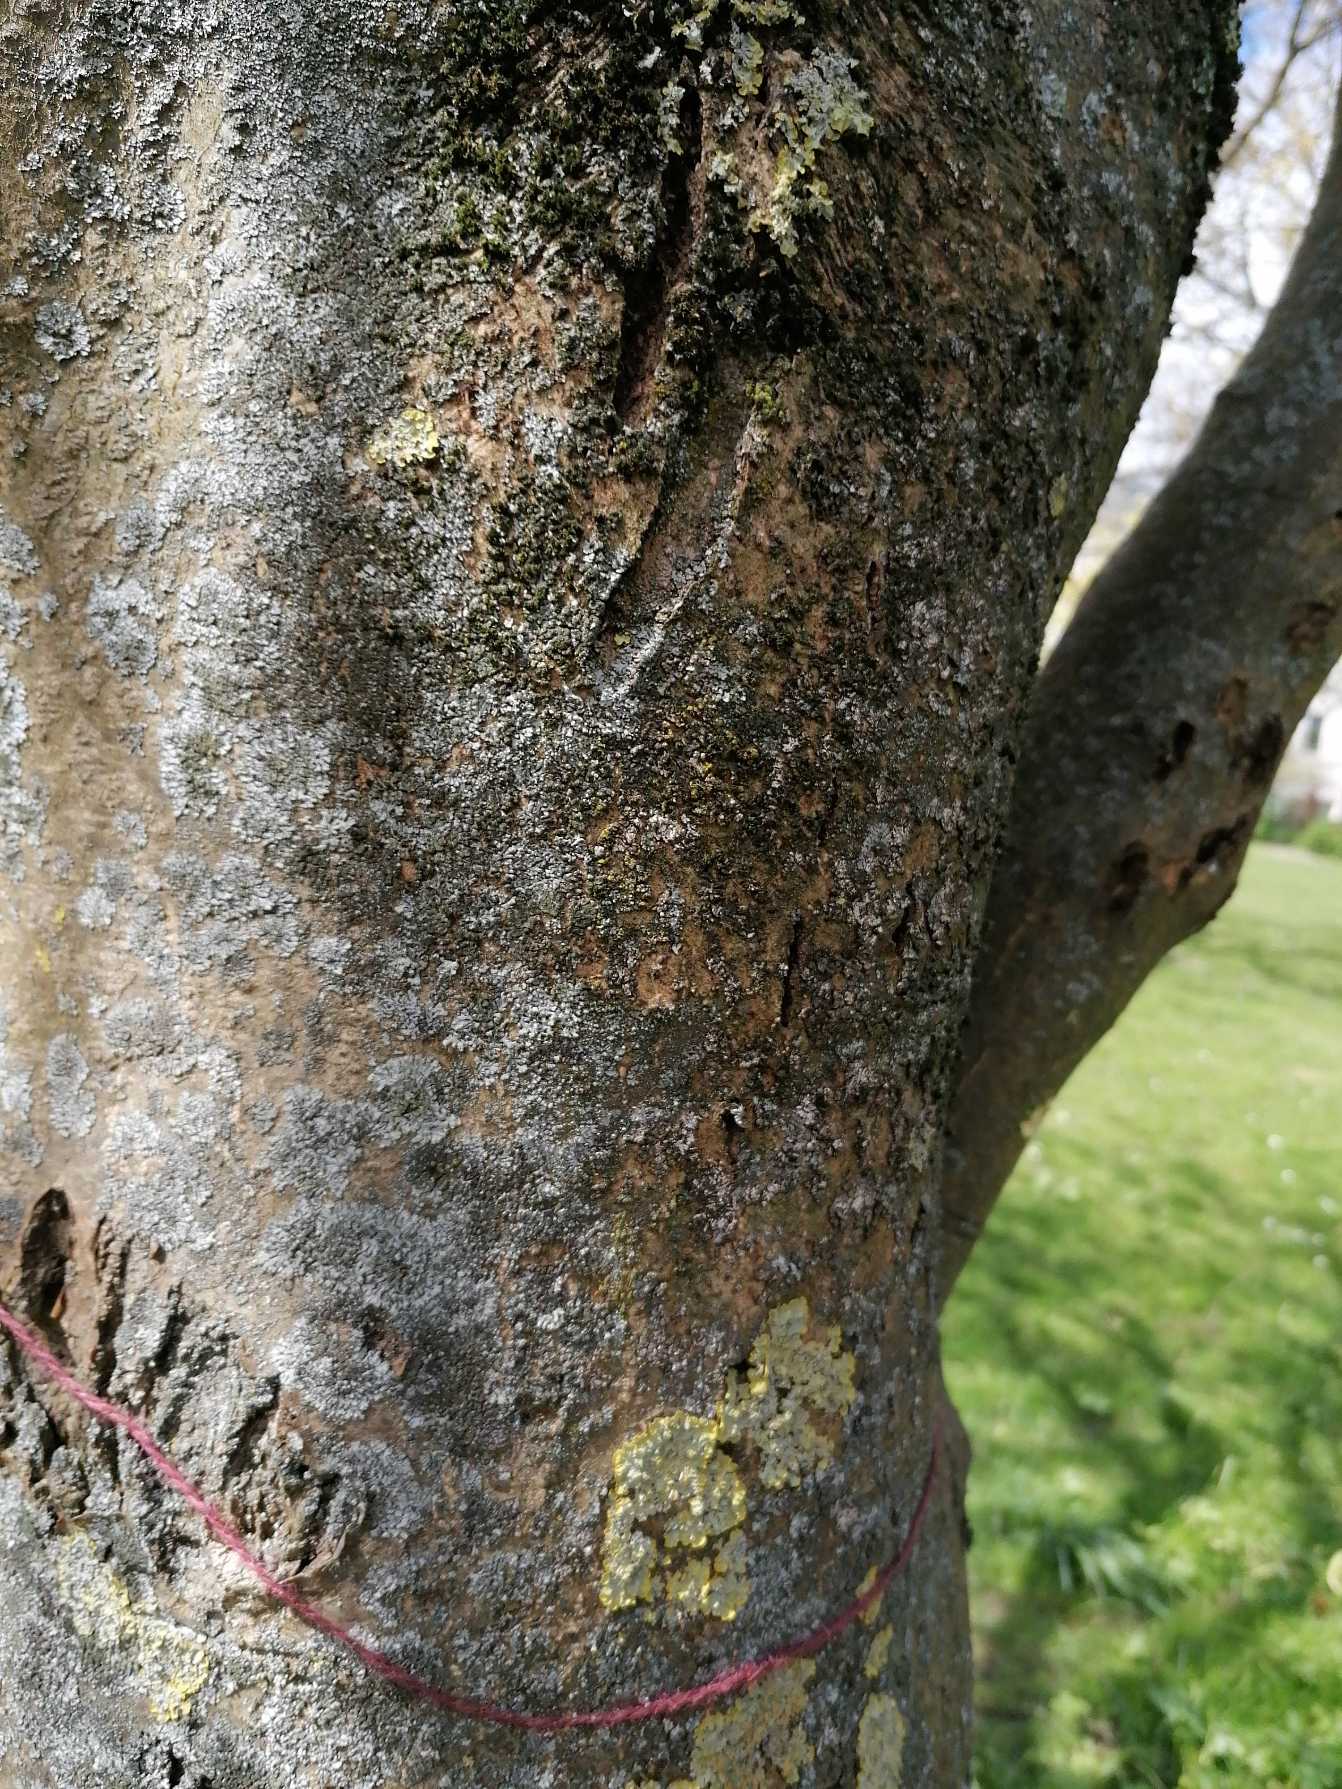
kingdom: Fungi
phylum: Ascomycota
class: Lecanoromycetes
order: Caliciales
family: Physciaceae
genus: Phaeophyscia
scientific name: Phaeophyscia orbicularis
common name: Grågrøn rosetlav
